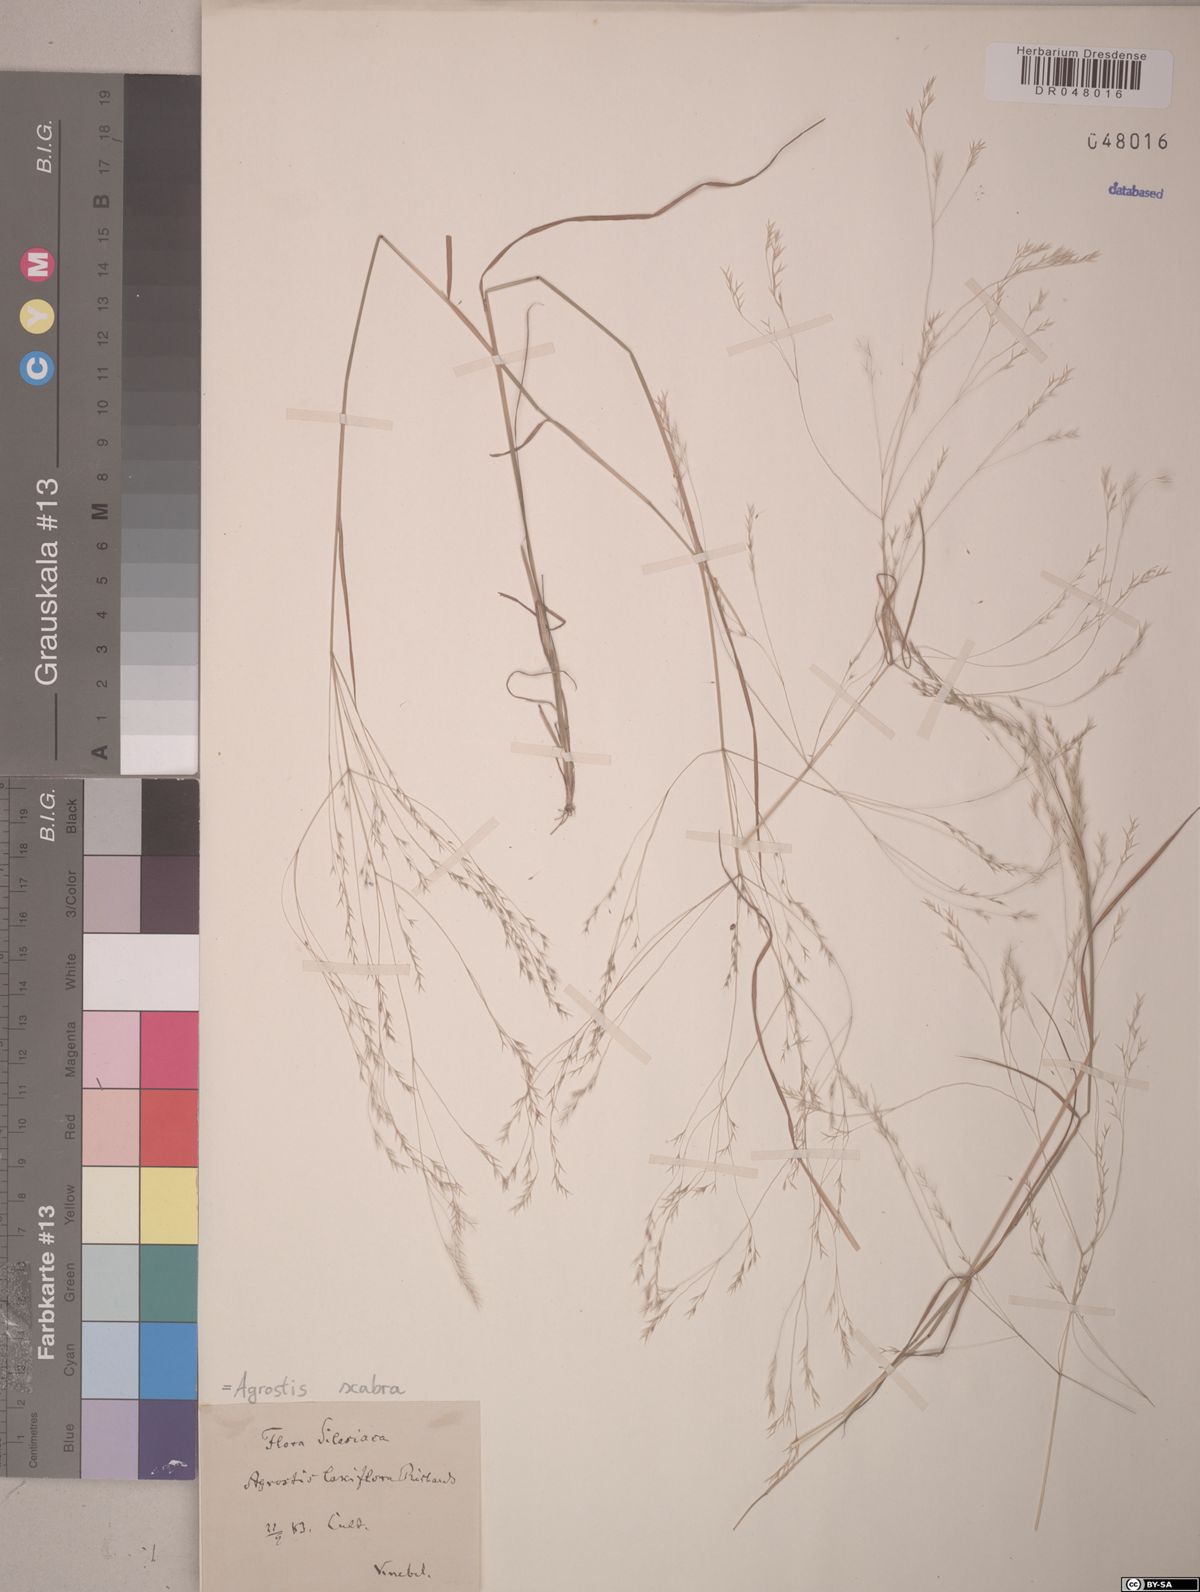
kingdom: Plantae
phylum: Tracheophyta
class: Liliopsida
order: Poales
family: Poaceae
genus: Agrostis
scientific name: Agrostis scabra
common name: Rough bent
